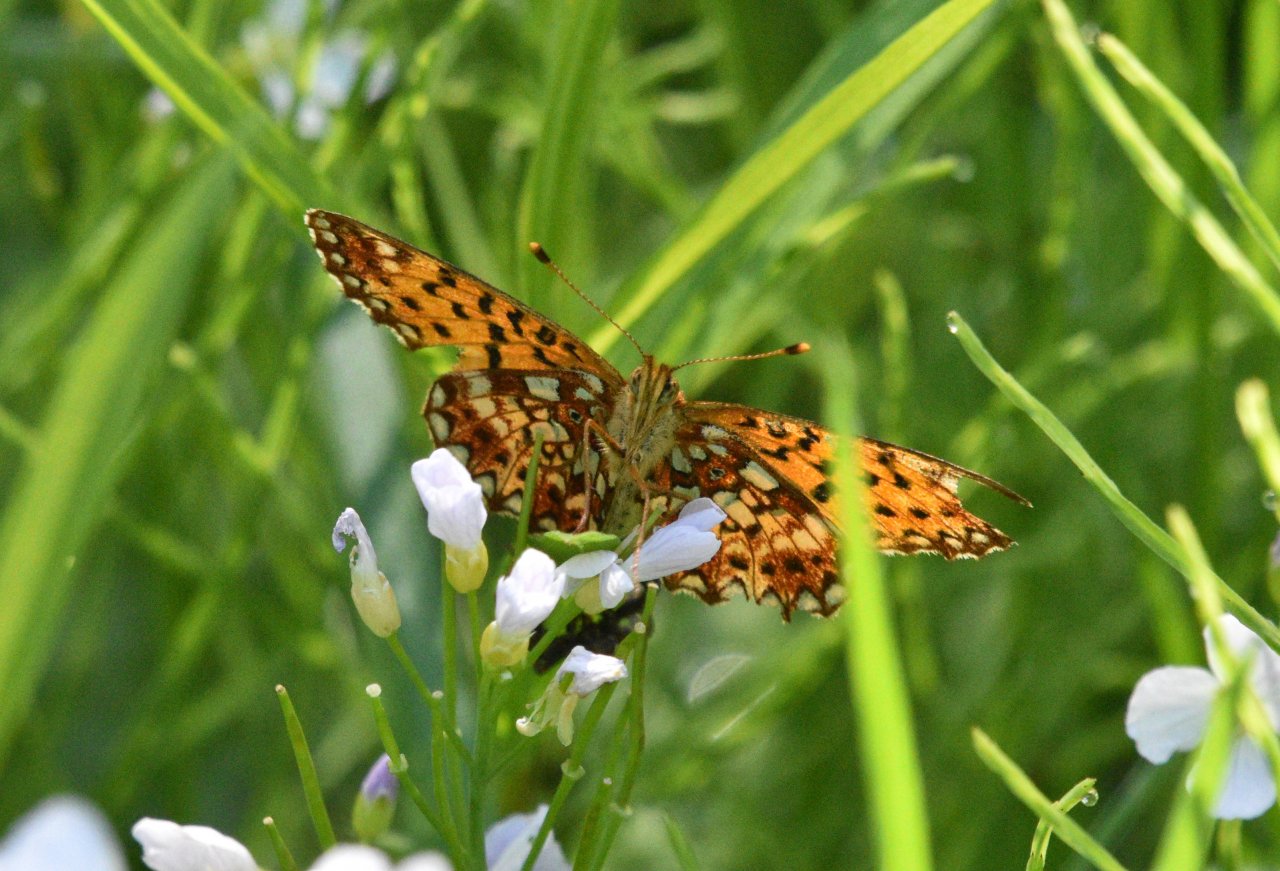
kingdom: Animalia
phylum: Arthropoda
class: Insecta
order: Lepidoptera
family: Nymphalidae
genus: Boloria
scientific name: Boloria selene
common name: Silver-bordered Fritillary
